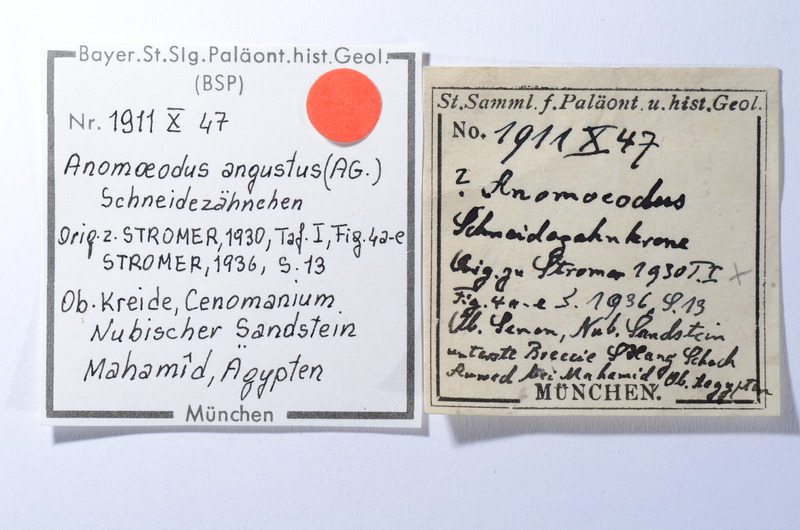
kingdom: Animalia
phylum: Chordata
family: Pycnodontidae
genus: Anomoeodus
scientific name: Anomoeodus
